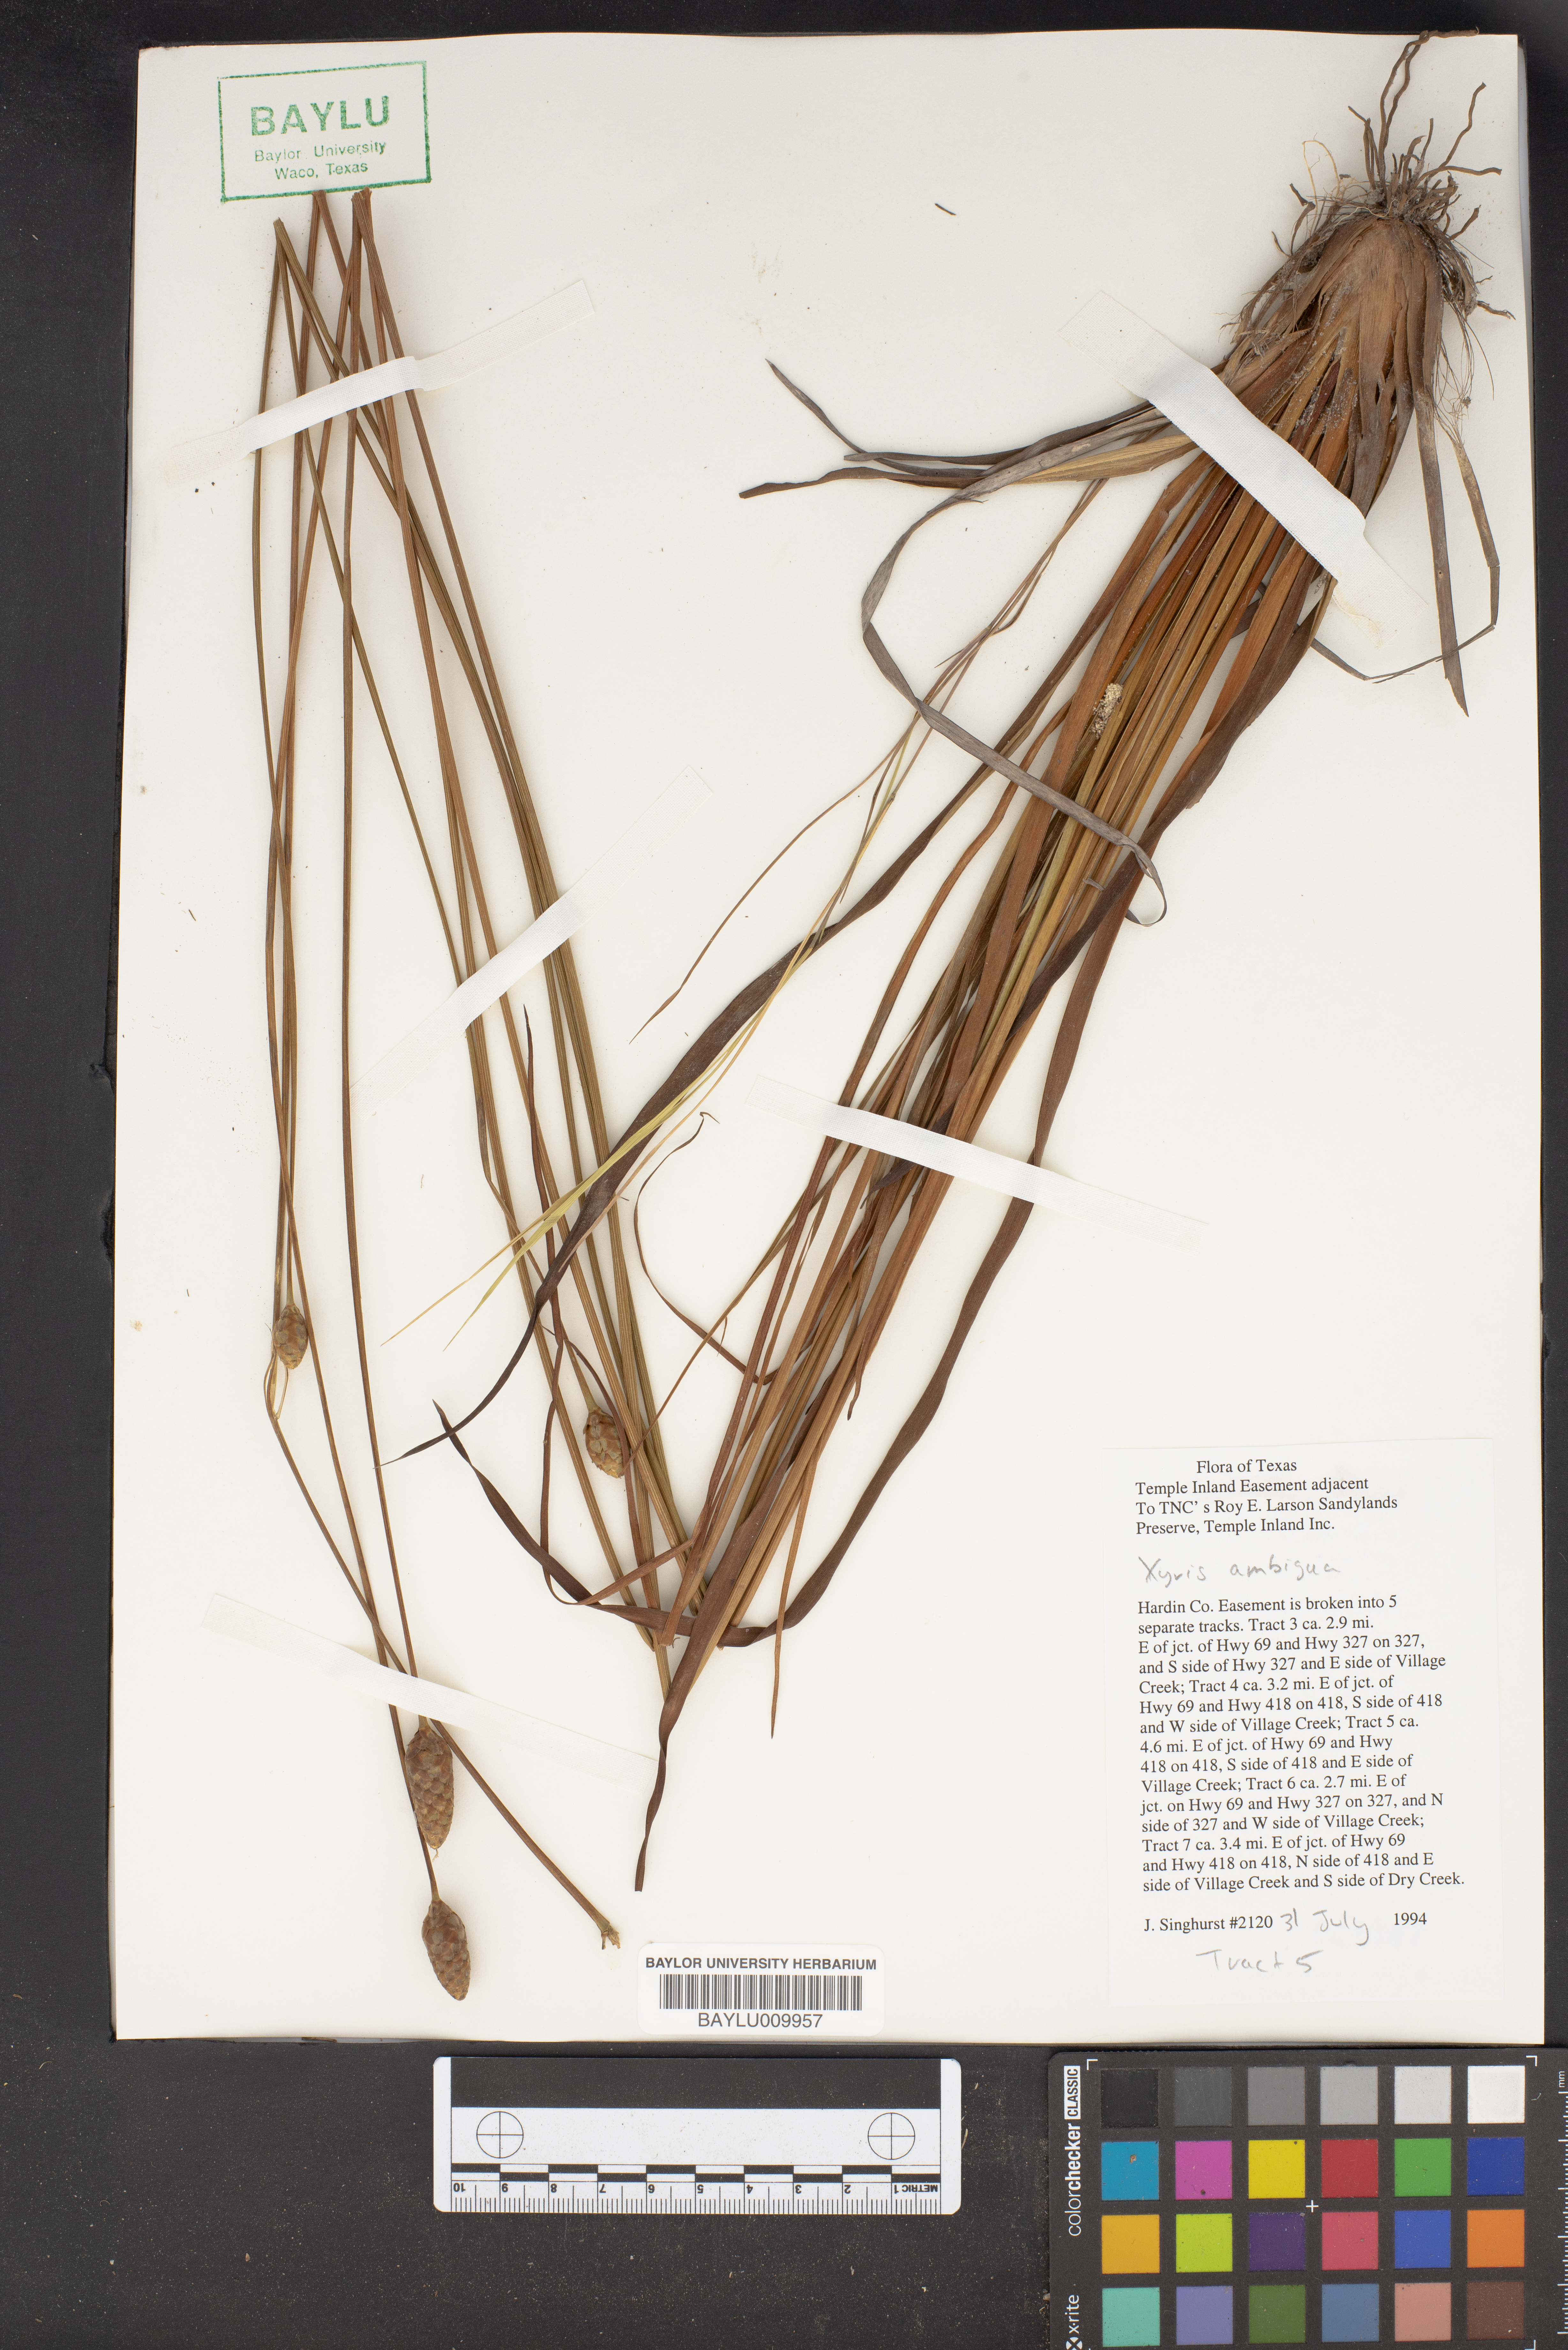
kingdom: Plantae
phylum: Tracheophyta
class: Liliopsida
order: Poales
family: Xyridaceae
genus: Xyris
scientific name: Xyris ambigua
